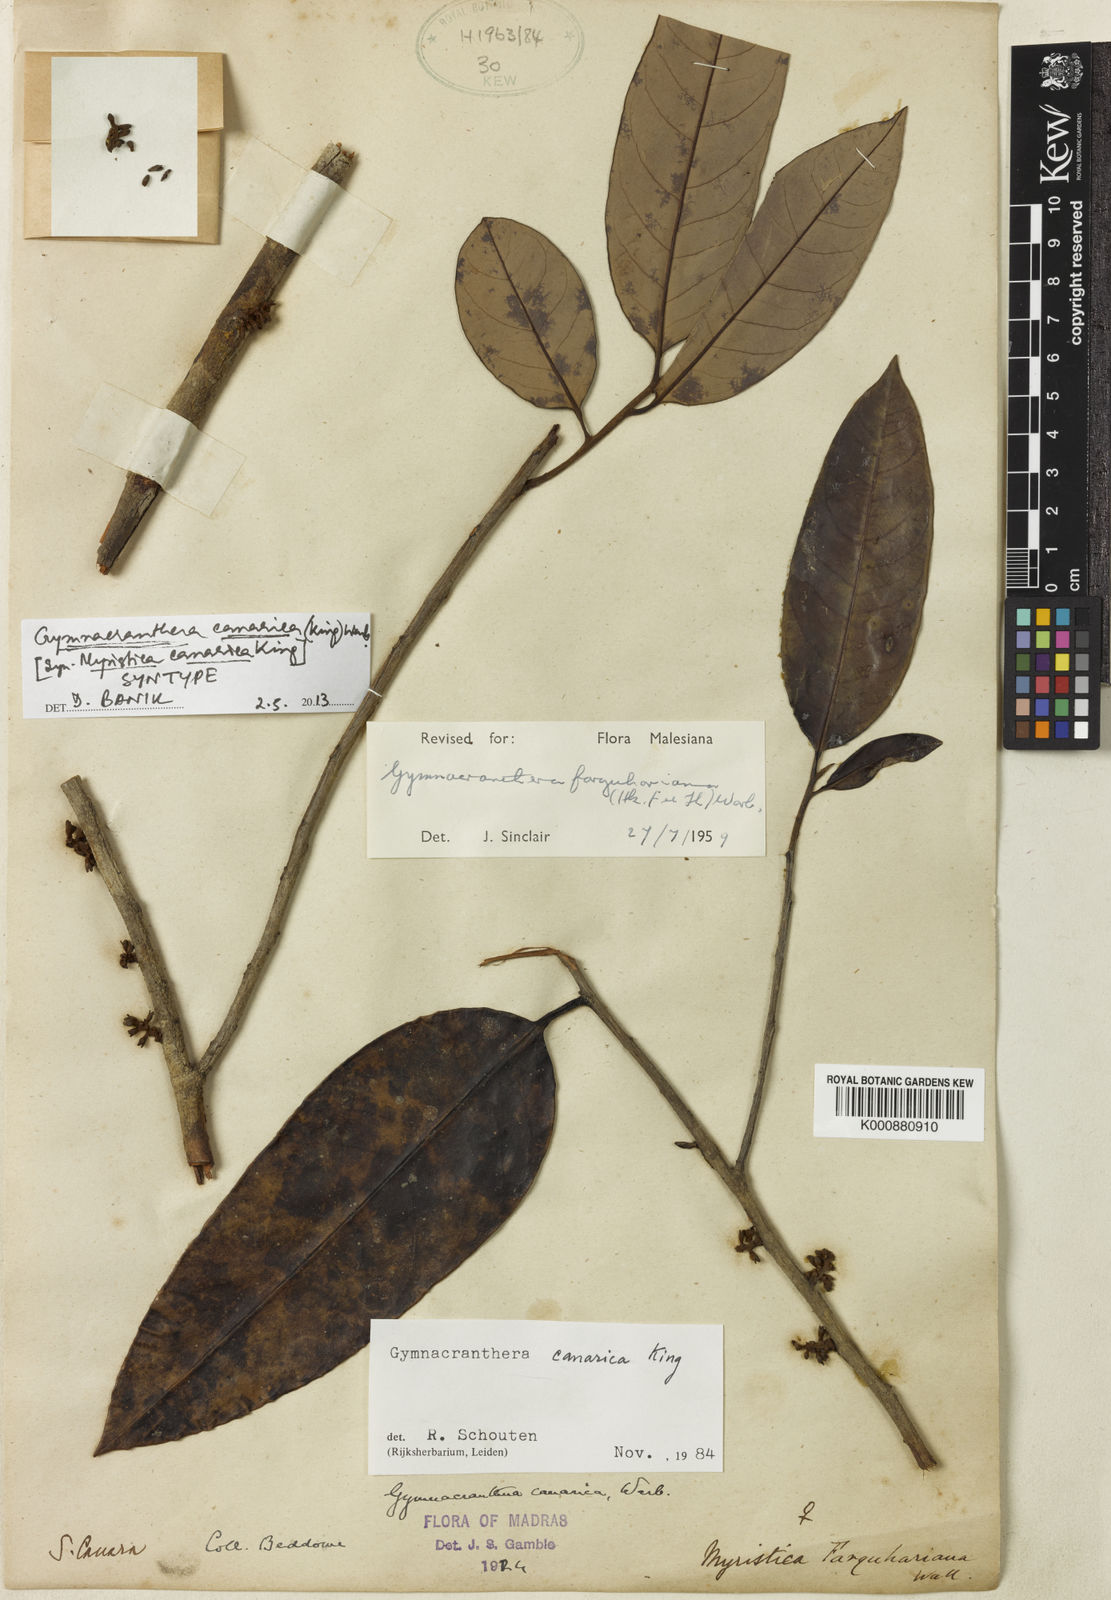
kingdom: Plantae
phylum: Tracheophyta
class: Magnoliopsida
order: Magnoliales
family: Myristicaceae
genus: Gymnacranthera
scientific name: Gymnacranthera canarica
